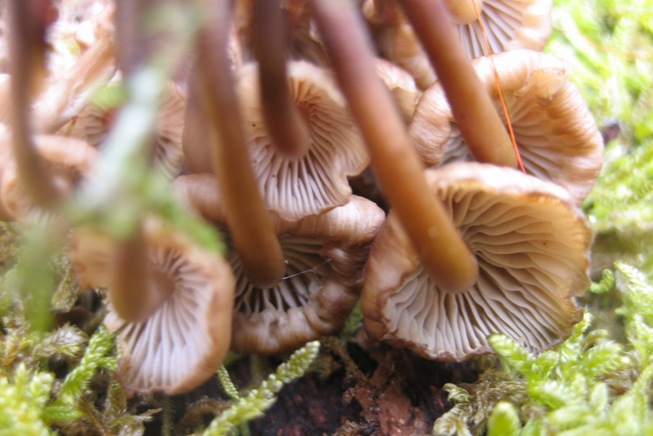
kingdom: Fungi
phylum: Basidiomycota
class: Agaricomycetes
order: Agaricales
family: Mycenaceae
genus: Mycena
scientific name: Mycena tintinnabulum
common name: vinter-huesvamp
